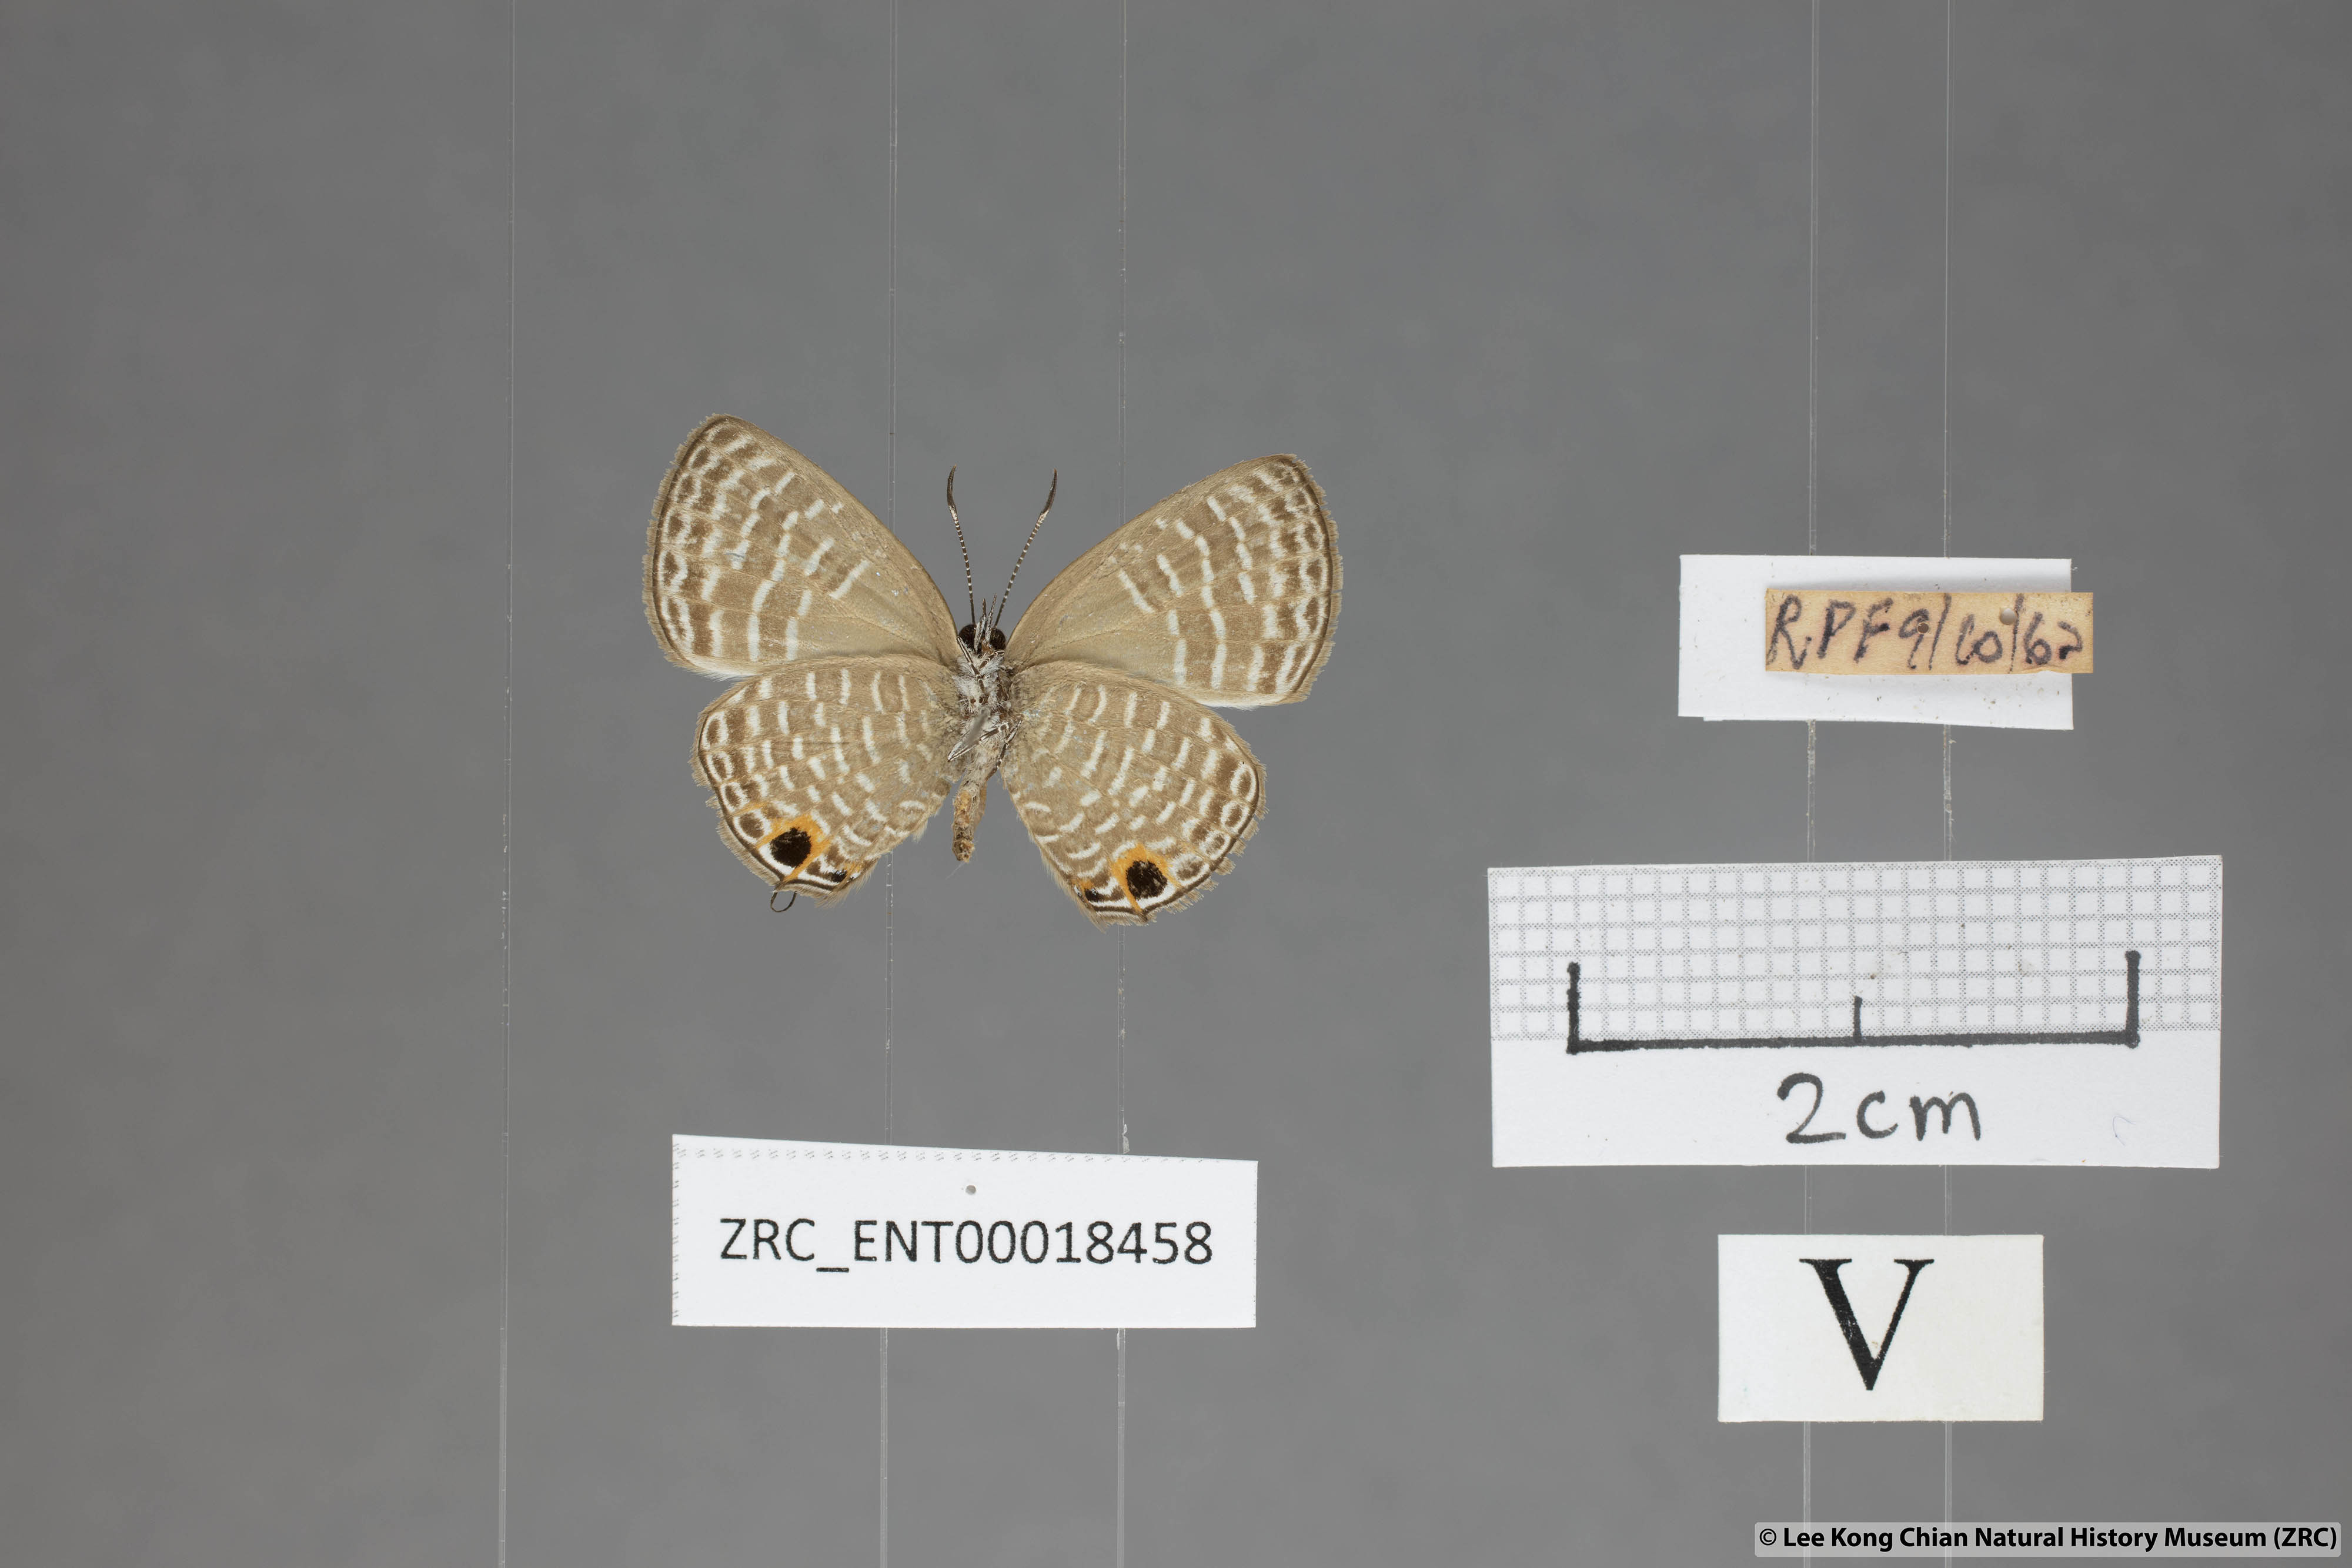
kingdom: Animalia
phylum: Arthropoda
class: Insecta
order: Lepidoptera
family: Lycaenidae
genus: Nacaduba
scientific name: Nacaduba sanaya
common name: Jewel fourline blue
